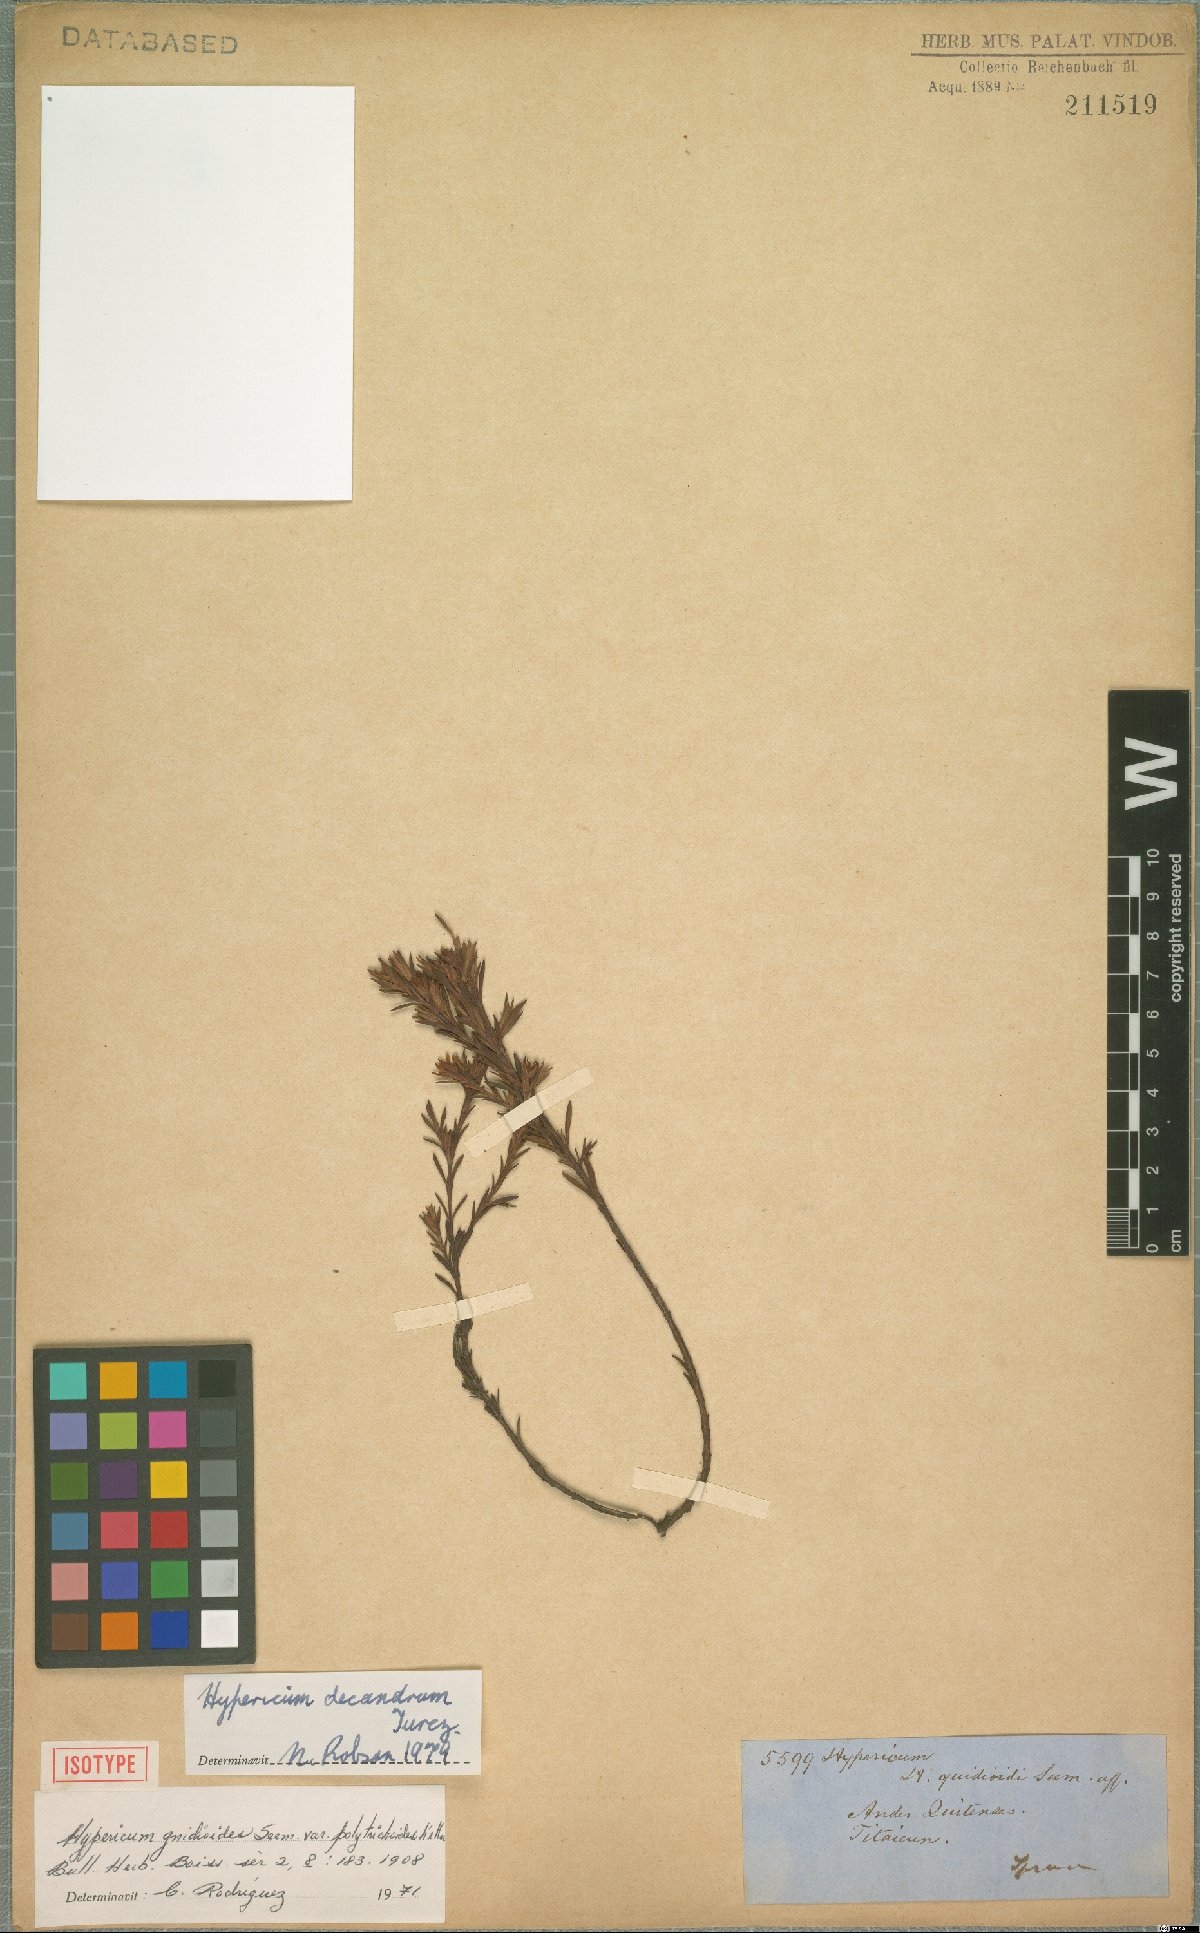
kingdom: Plantae
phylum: Tracheophyta
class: Magnoliopsida
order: Malpighiales
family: Hypericaceae
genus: Hypericum
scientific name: Hypericum decandrum
